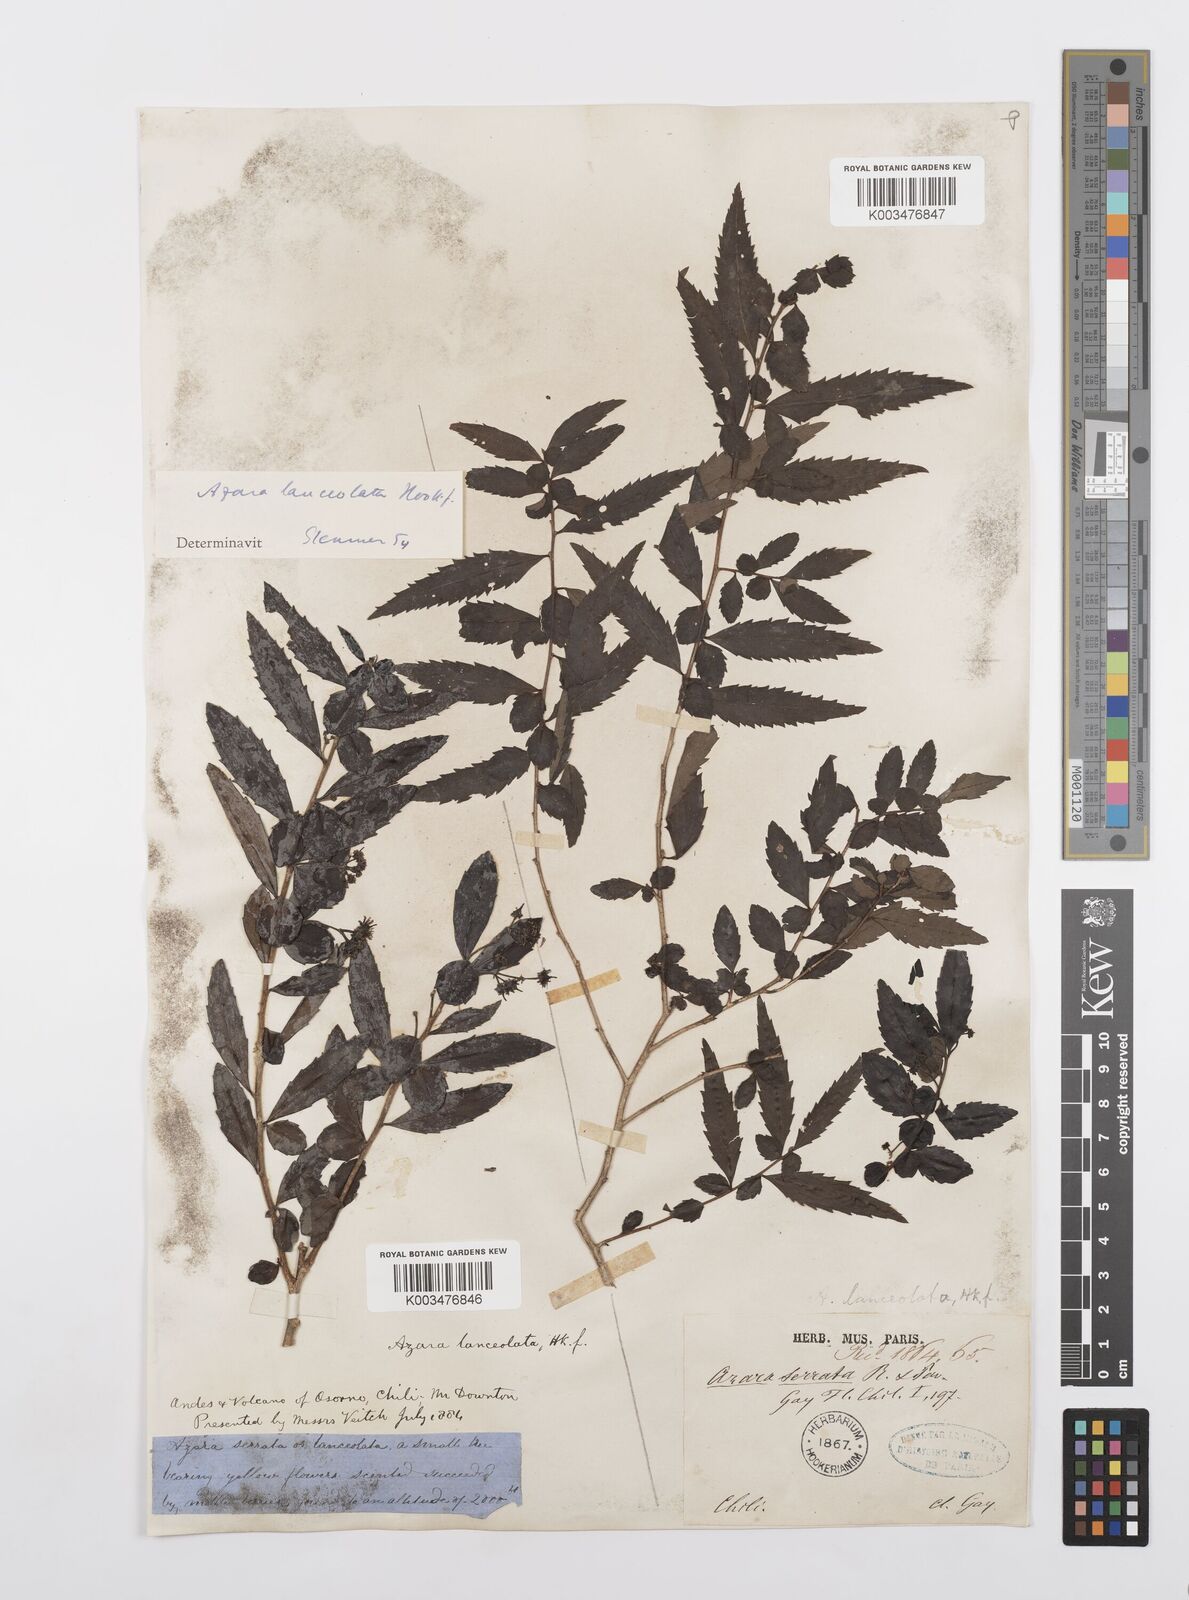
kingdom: Plantae
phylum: Tracheophyta
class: Magnoliopsida
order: Malpighiales
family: Salicaceae
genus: Azara
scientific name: Azara lanceolata
